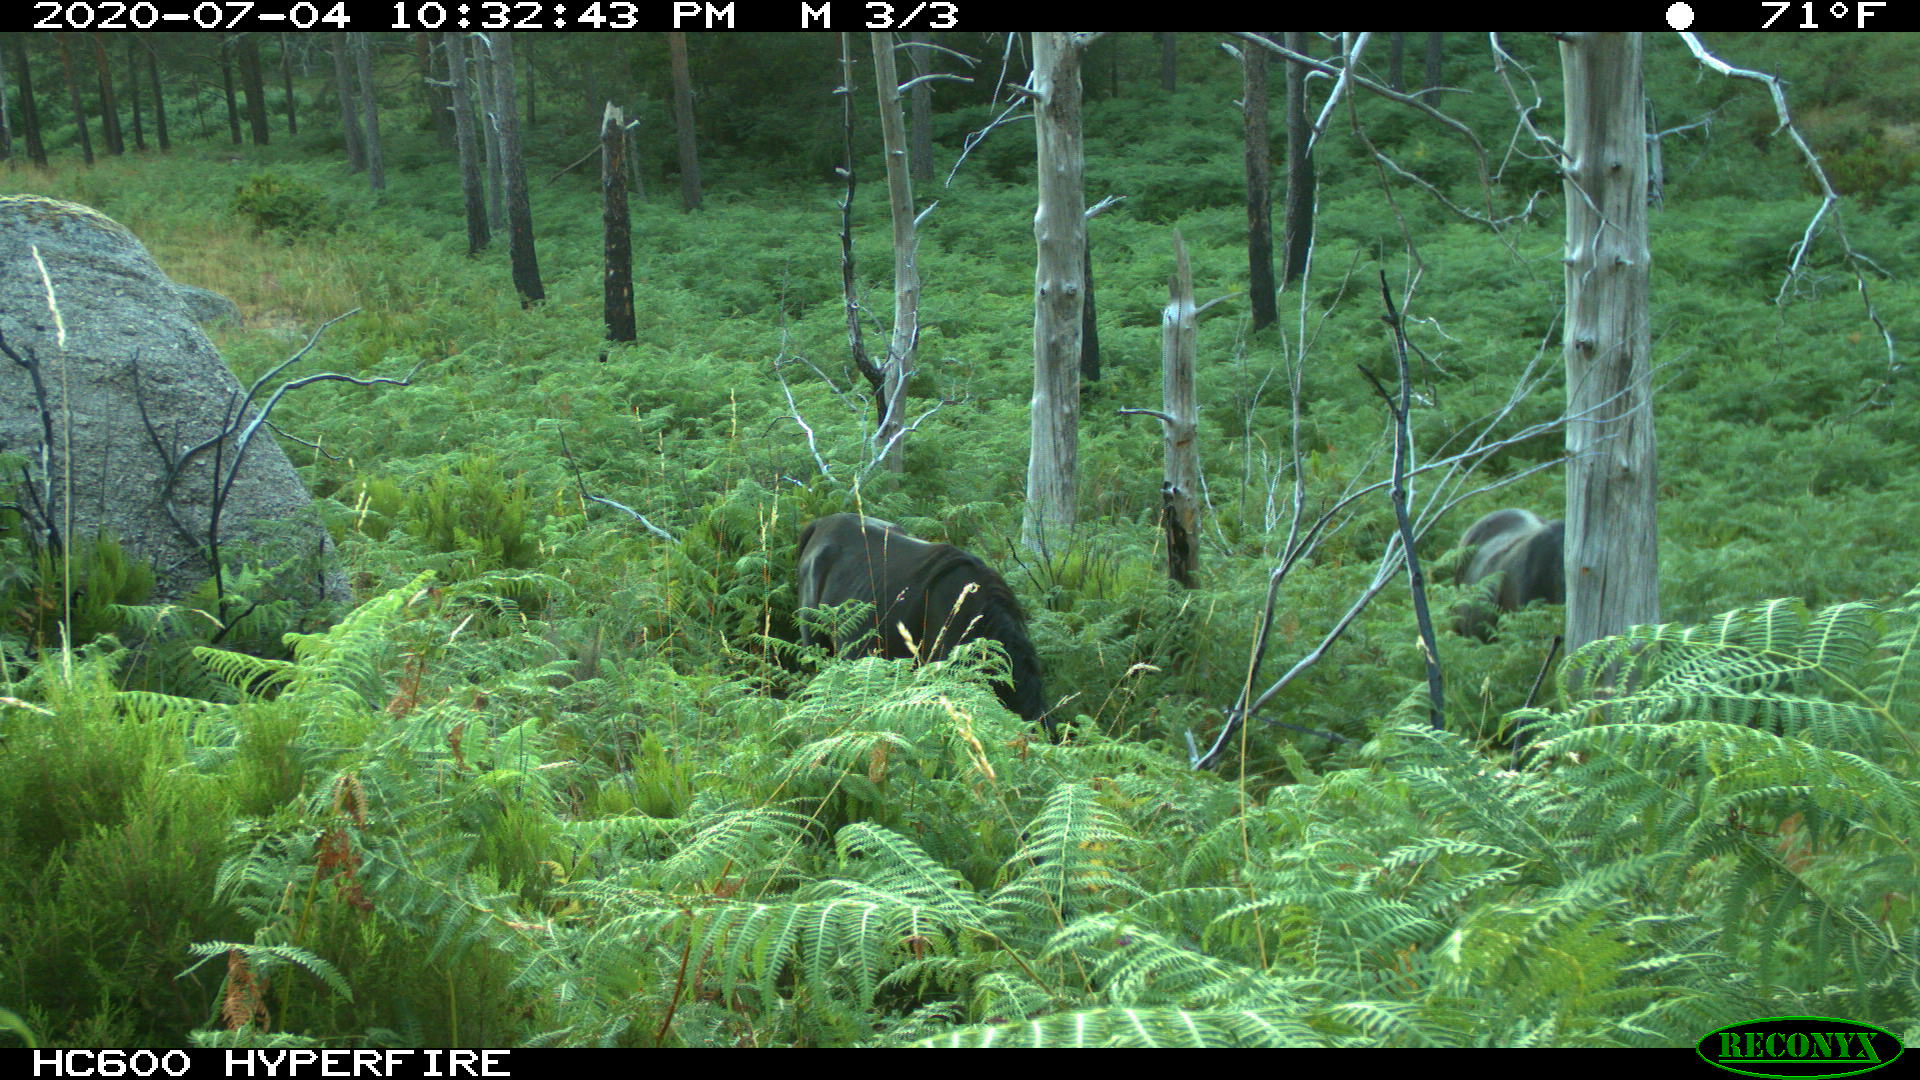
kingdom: Animalia
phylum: Chordata
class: Mammalia
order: Perissodactyla
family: Equidae
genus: Equus
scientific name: Equus caballus
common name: Horse
